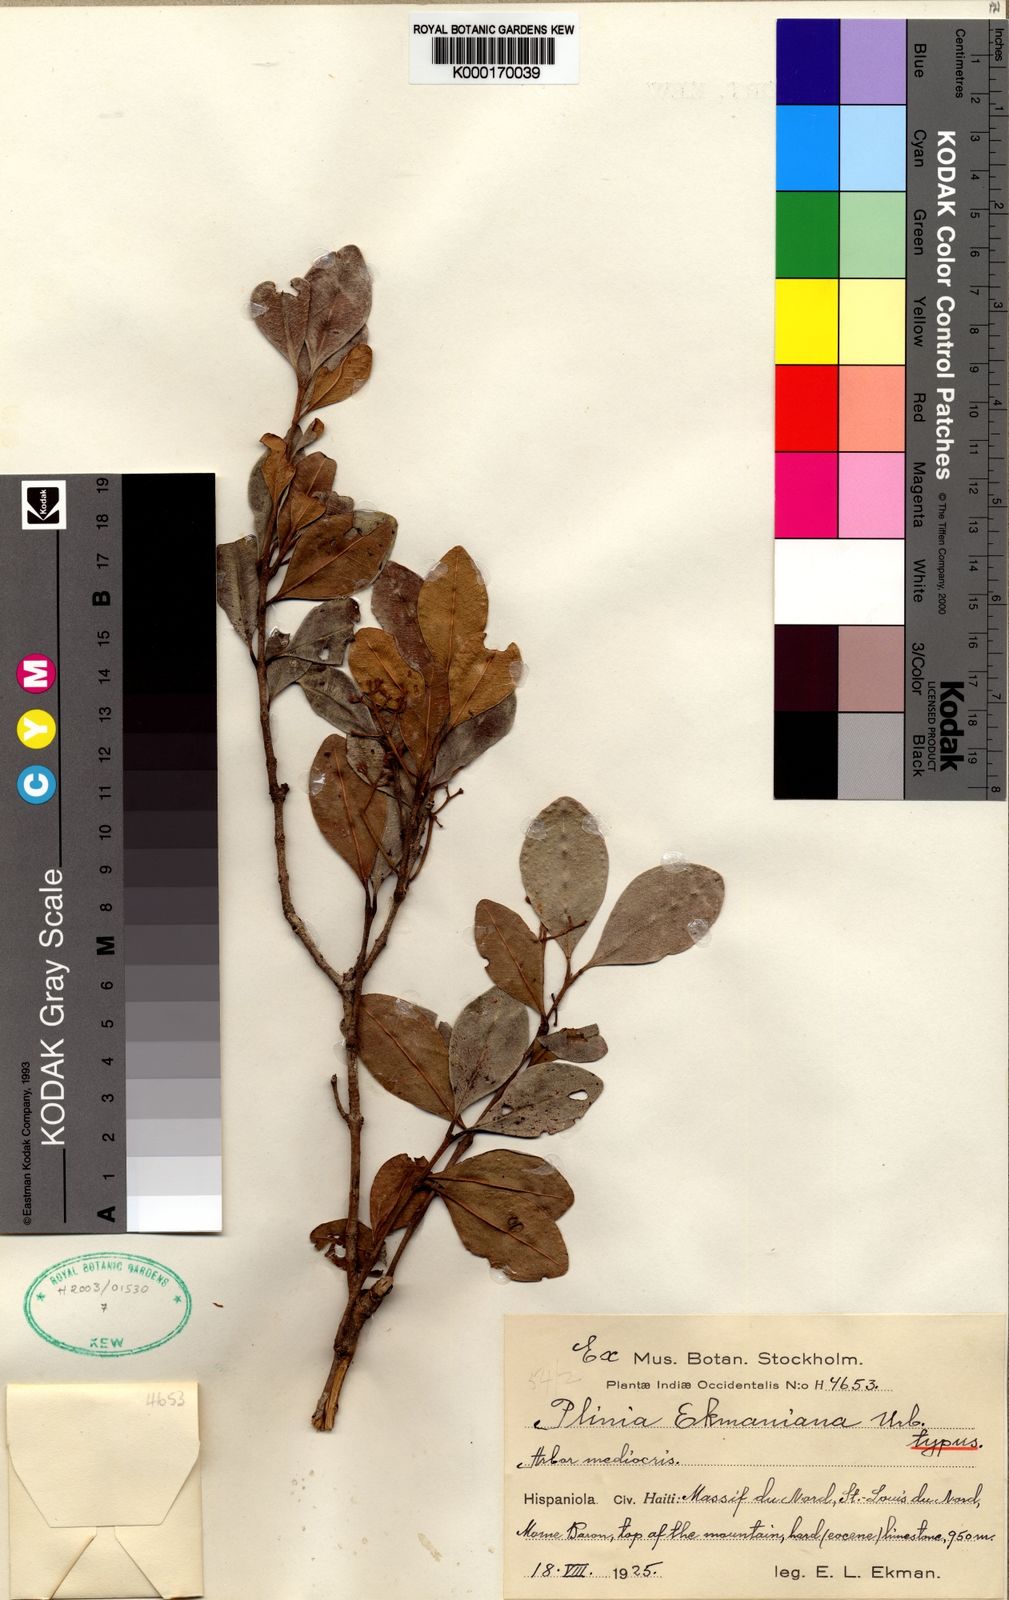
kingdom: Plantae
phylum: Tracheophyta
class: Magnoliopsida
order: Myrtales
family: Myrtaceae
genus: Plinia
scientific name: Plinia ekmaniana
